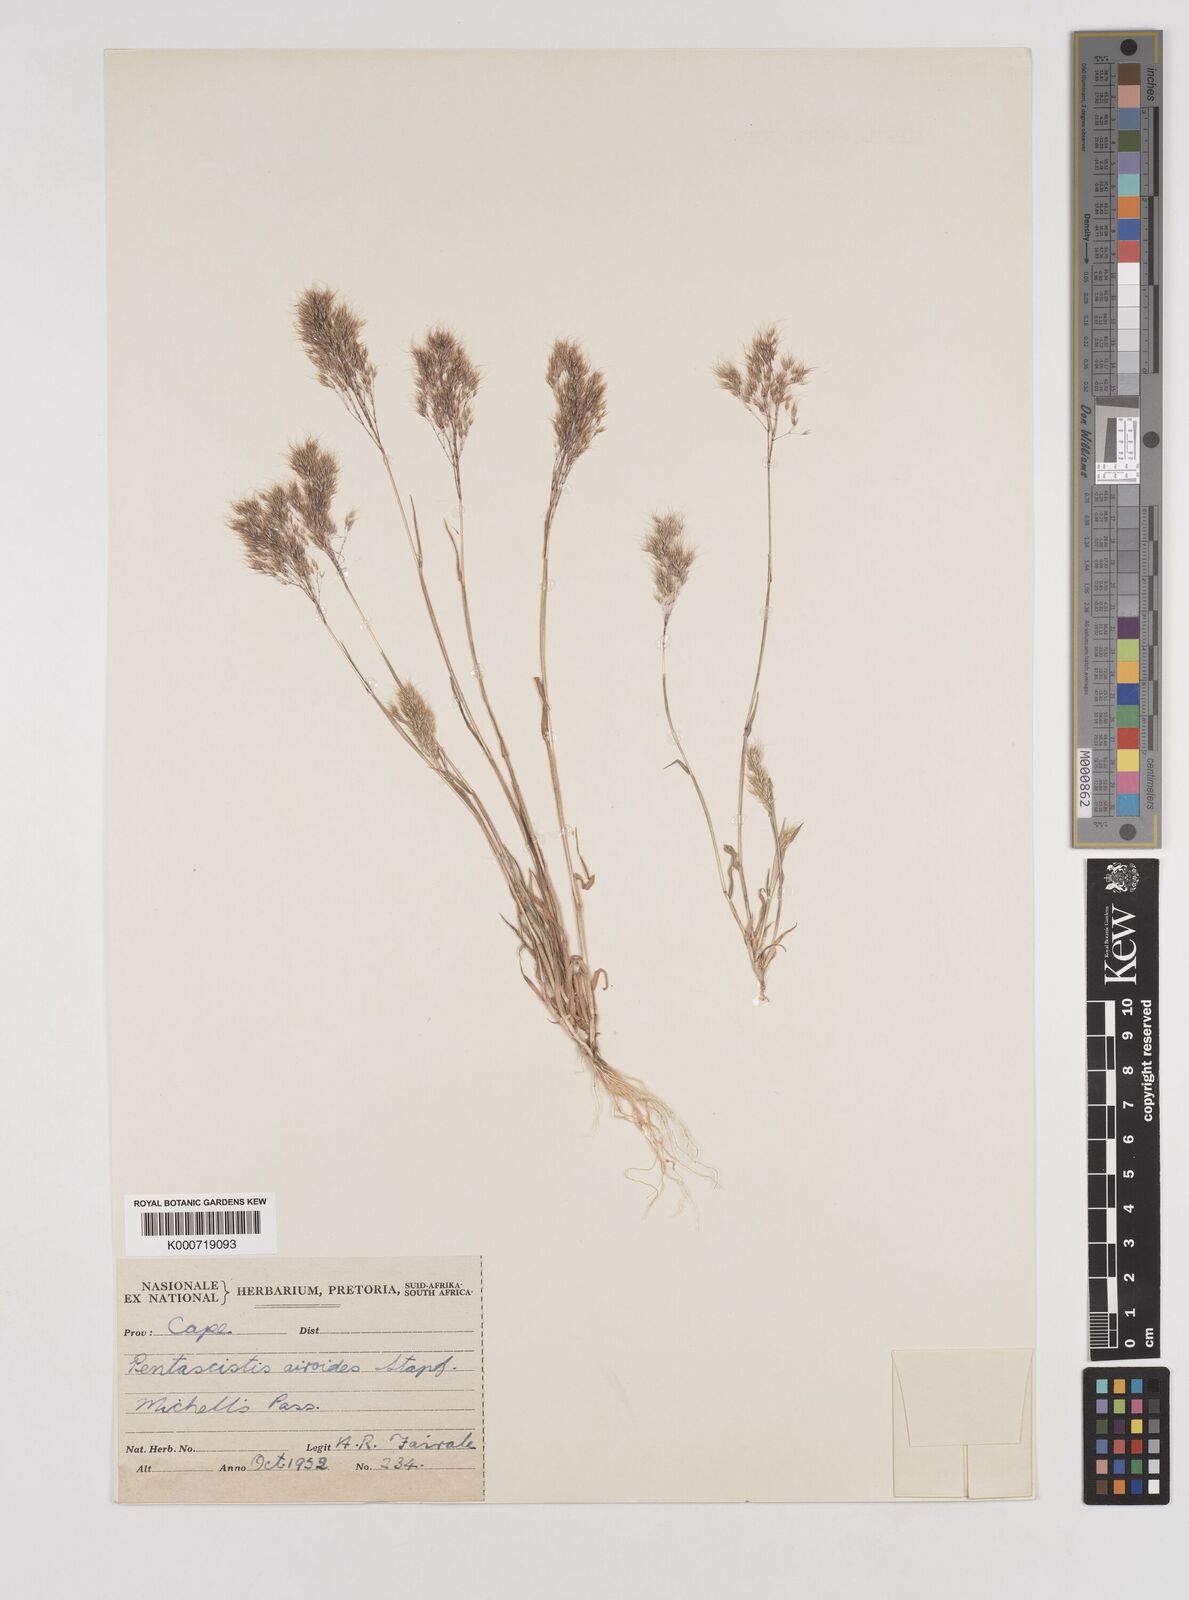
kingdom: Plantae
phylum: Tracheophyta
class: Liliopsida
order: Poales
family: Poaceae
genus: Pentameris
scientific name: Pentameris airoides
